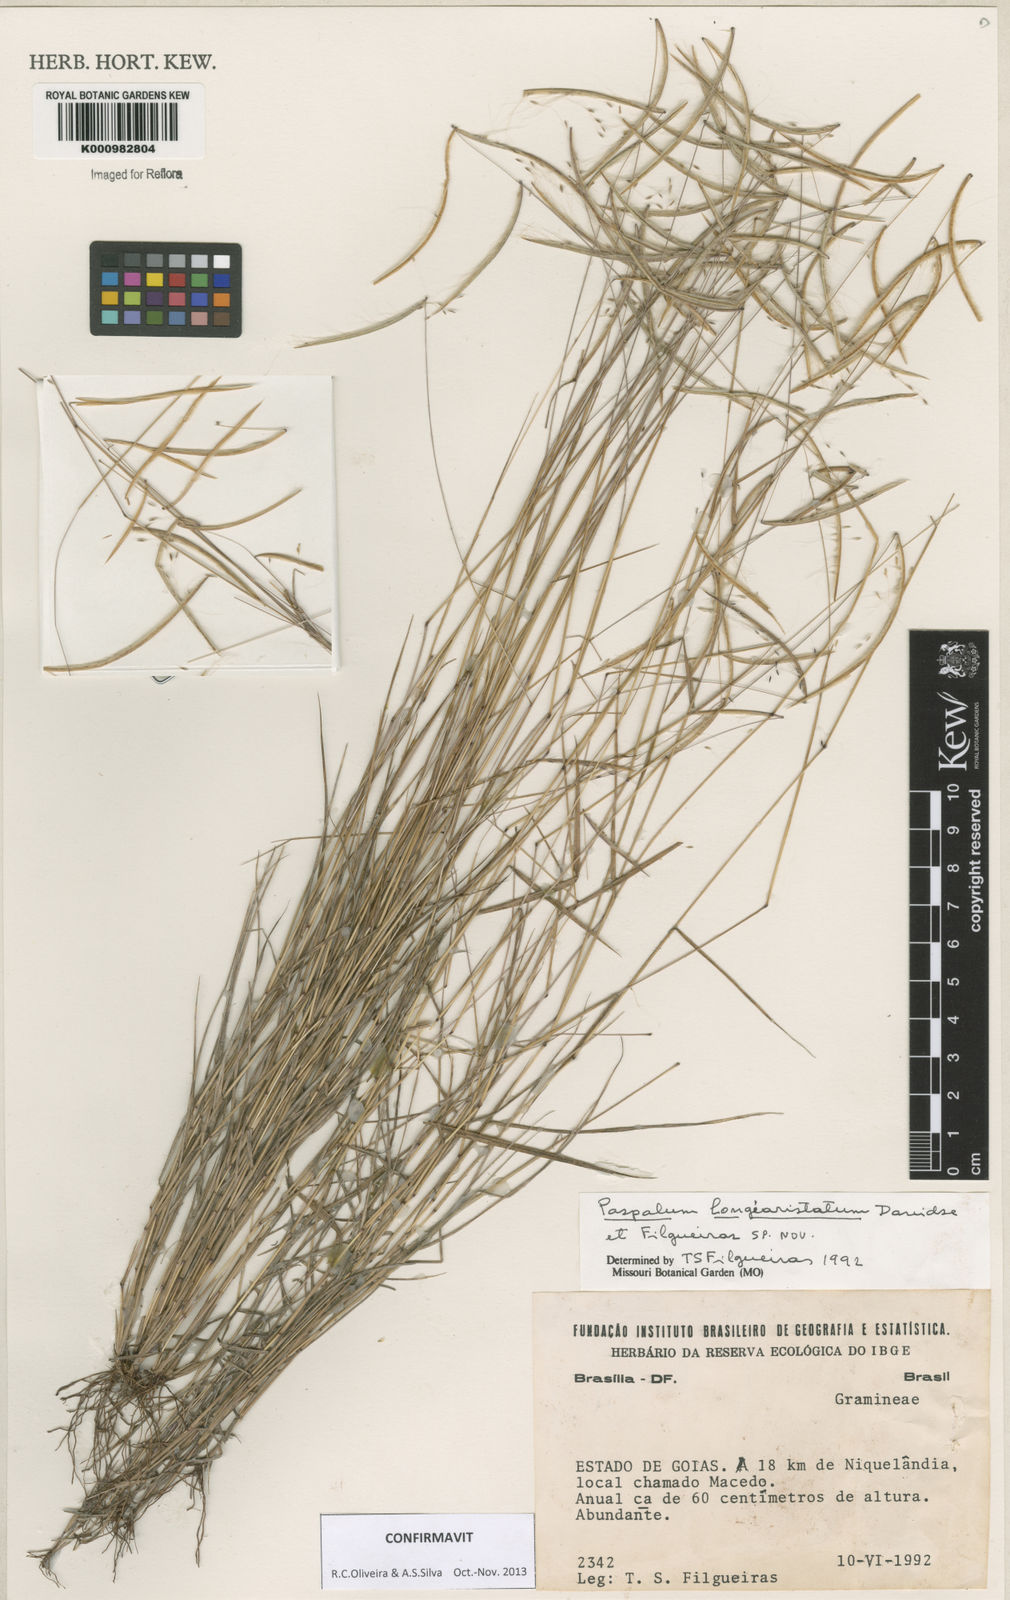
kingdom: Plantae
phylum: Tracheophyta
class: Liliopsida
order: Poales
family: Poaceae
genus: Paspalum
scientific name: Paspalum longiaristatum
